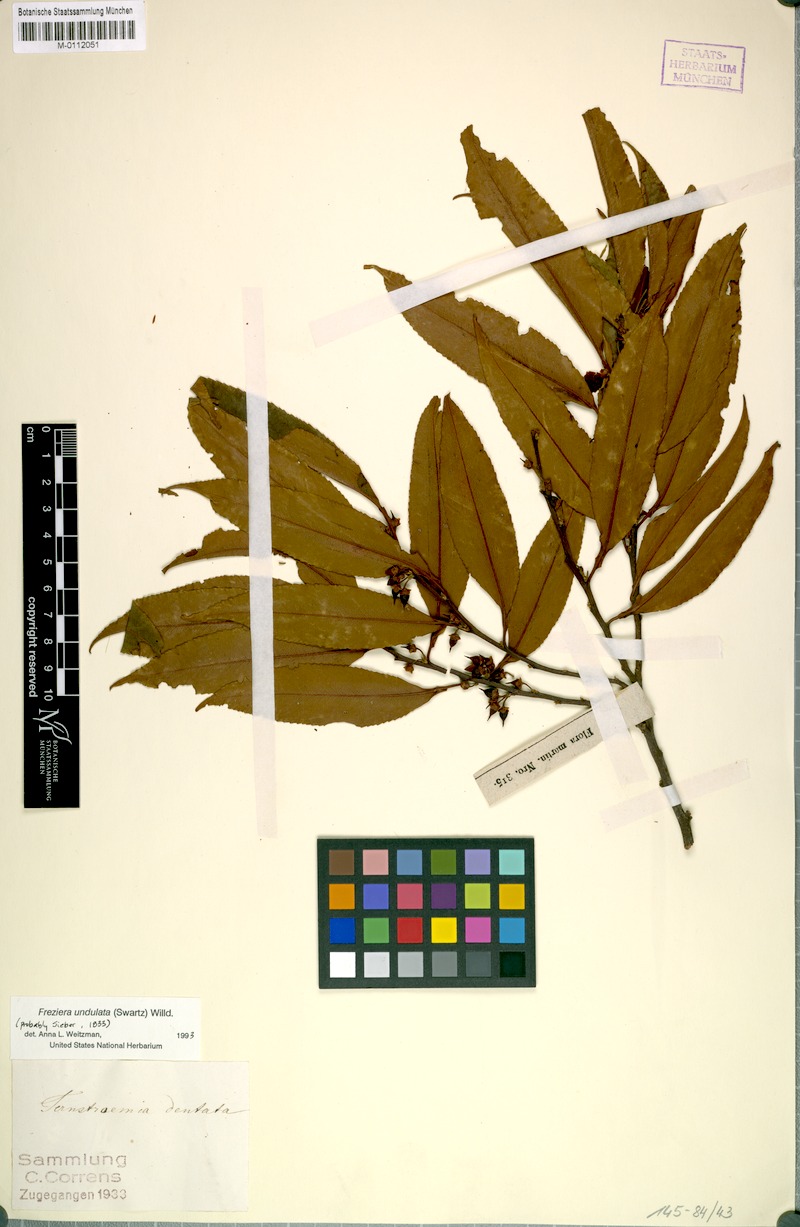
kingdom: Plantae
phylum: Tracheophyta
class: Magnoliopsida
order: Ericales
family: Pentaphylacaceae
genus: Freziera
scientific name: Freziera undulata
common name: Mountain mahogany
